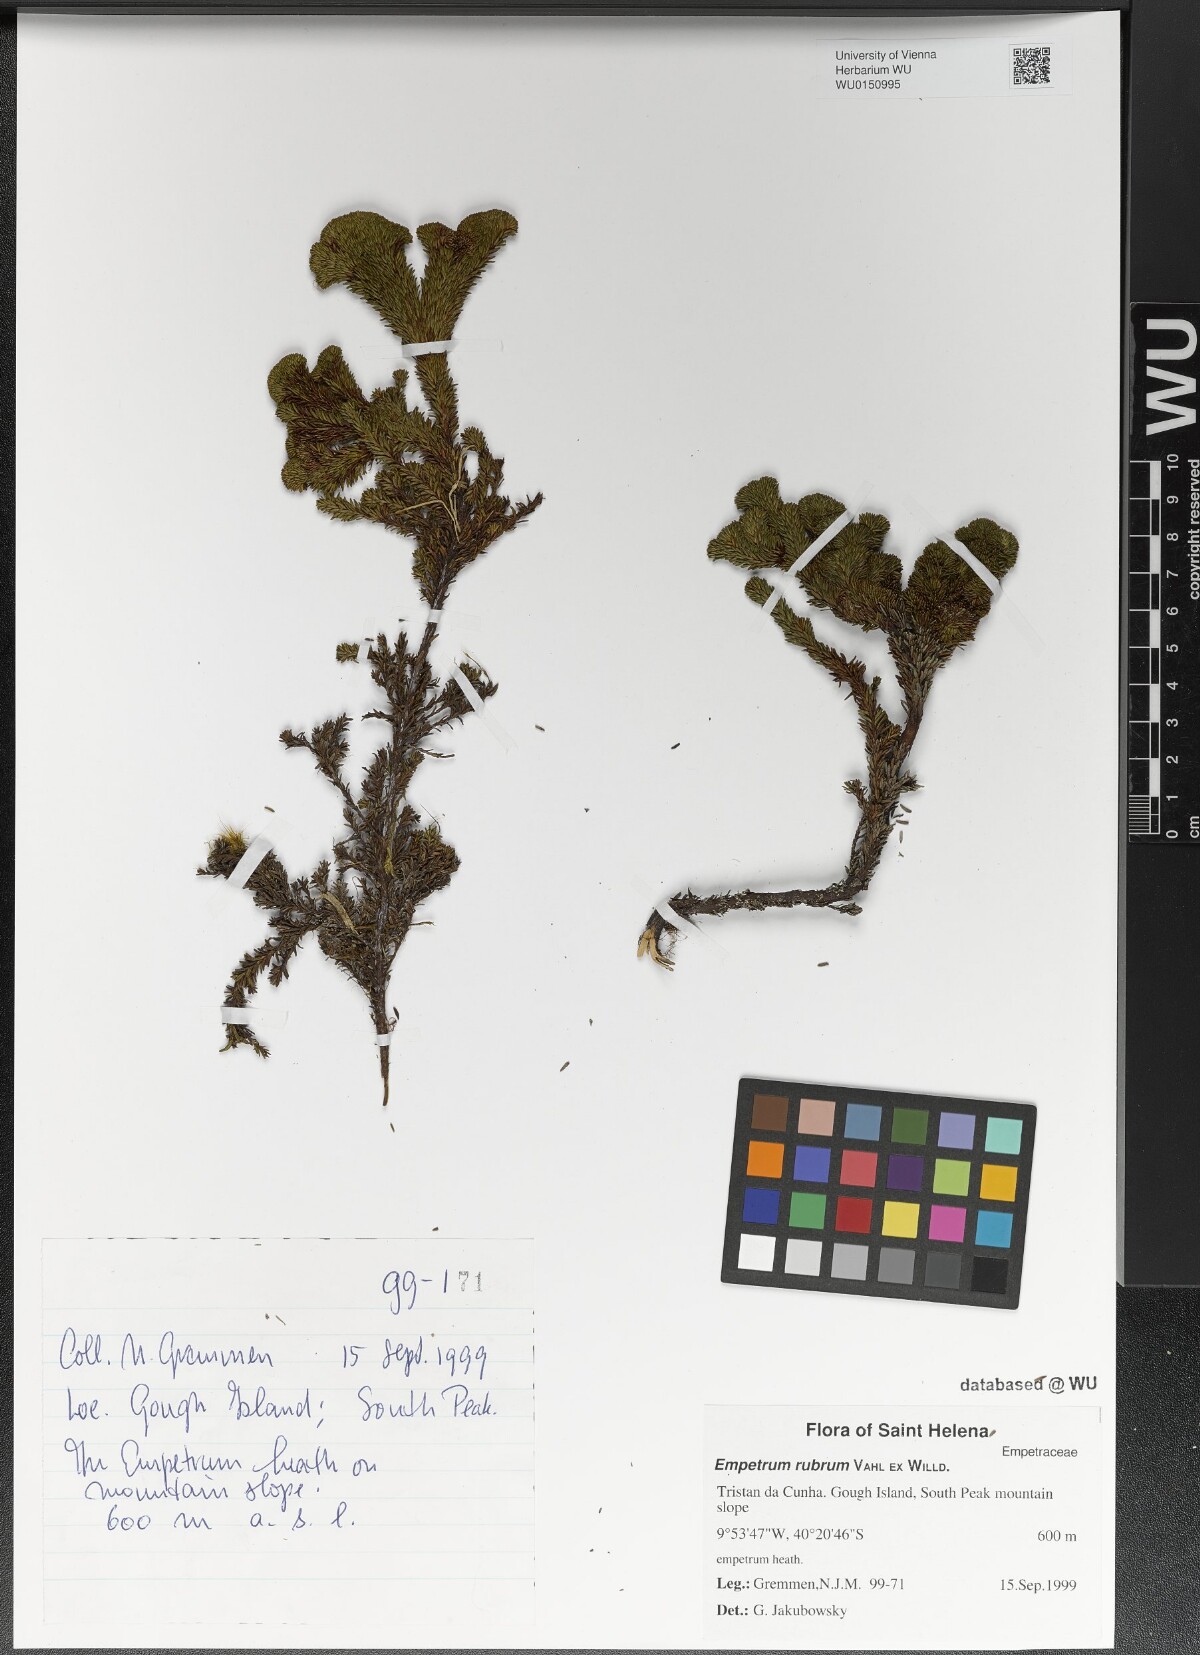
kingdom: Plantae
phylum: Tracheophyta
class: Magnoliopsida
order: Ericales
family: Ericaceae
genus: Empetrum
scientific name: Empetrum rubrum
